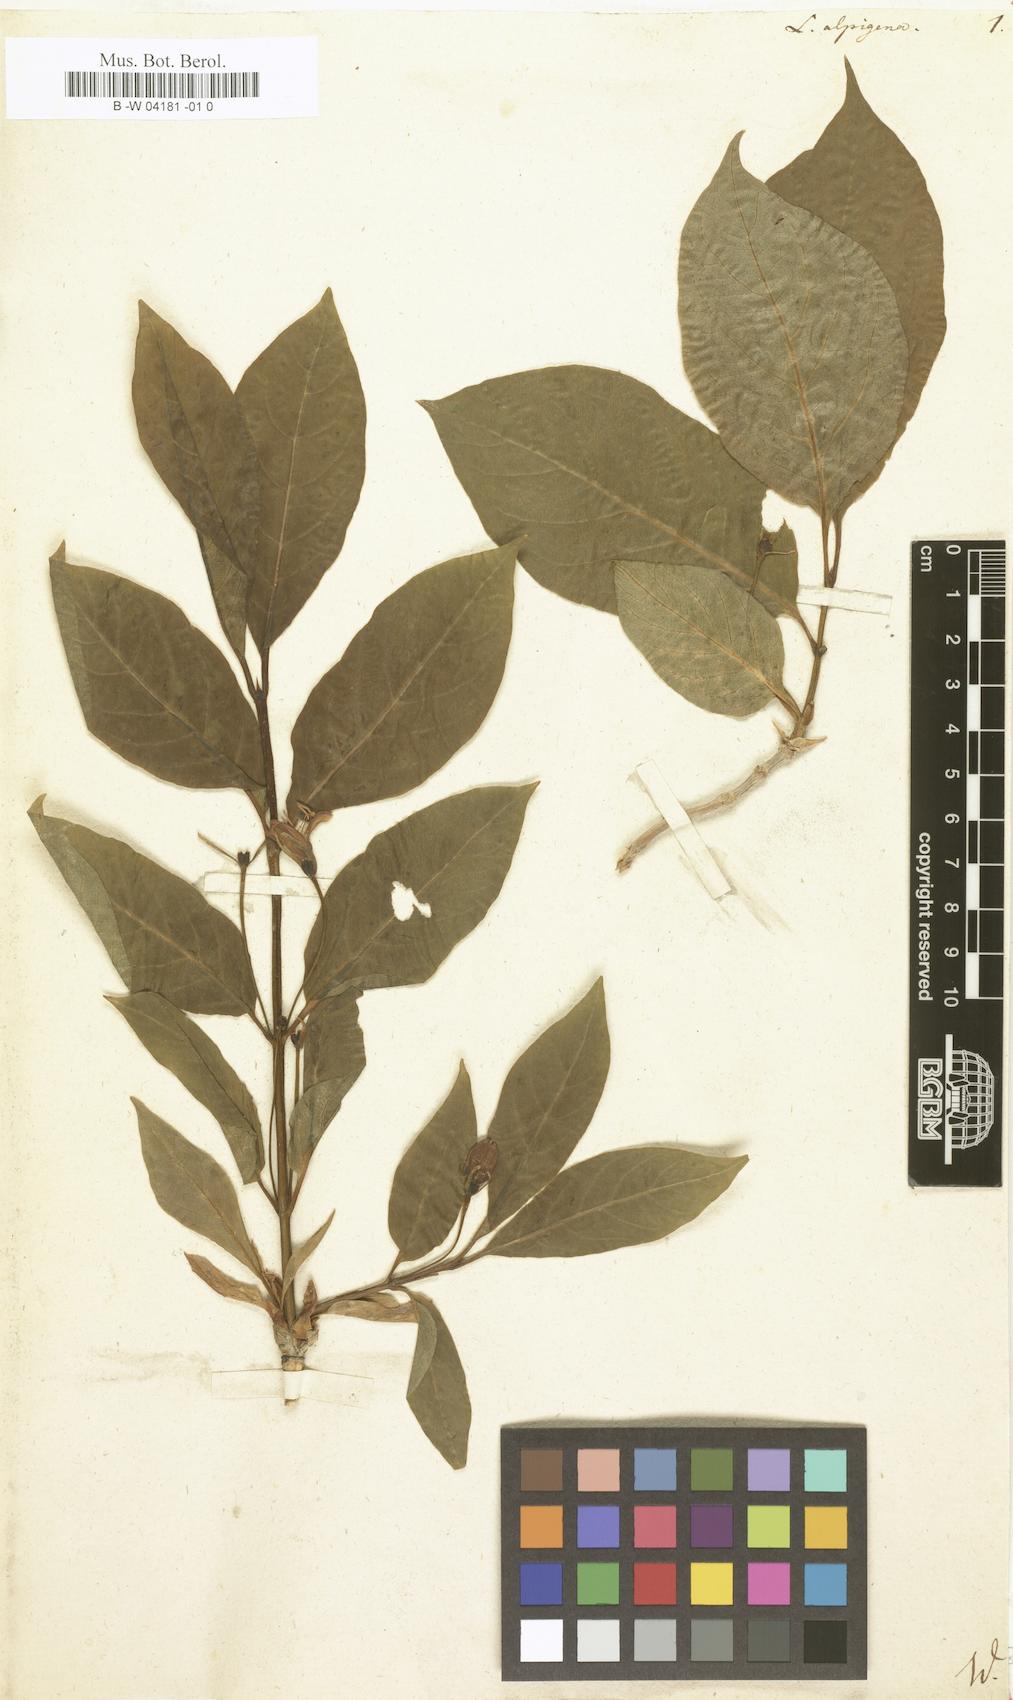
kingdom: Plantae
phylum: Tracheophyta
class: Magnoliopsida
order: Dipsacales
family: Caprifoliaceae
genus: Lonicera
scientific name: Lonicera alpigena
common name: Alpine honeysuckle
